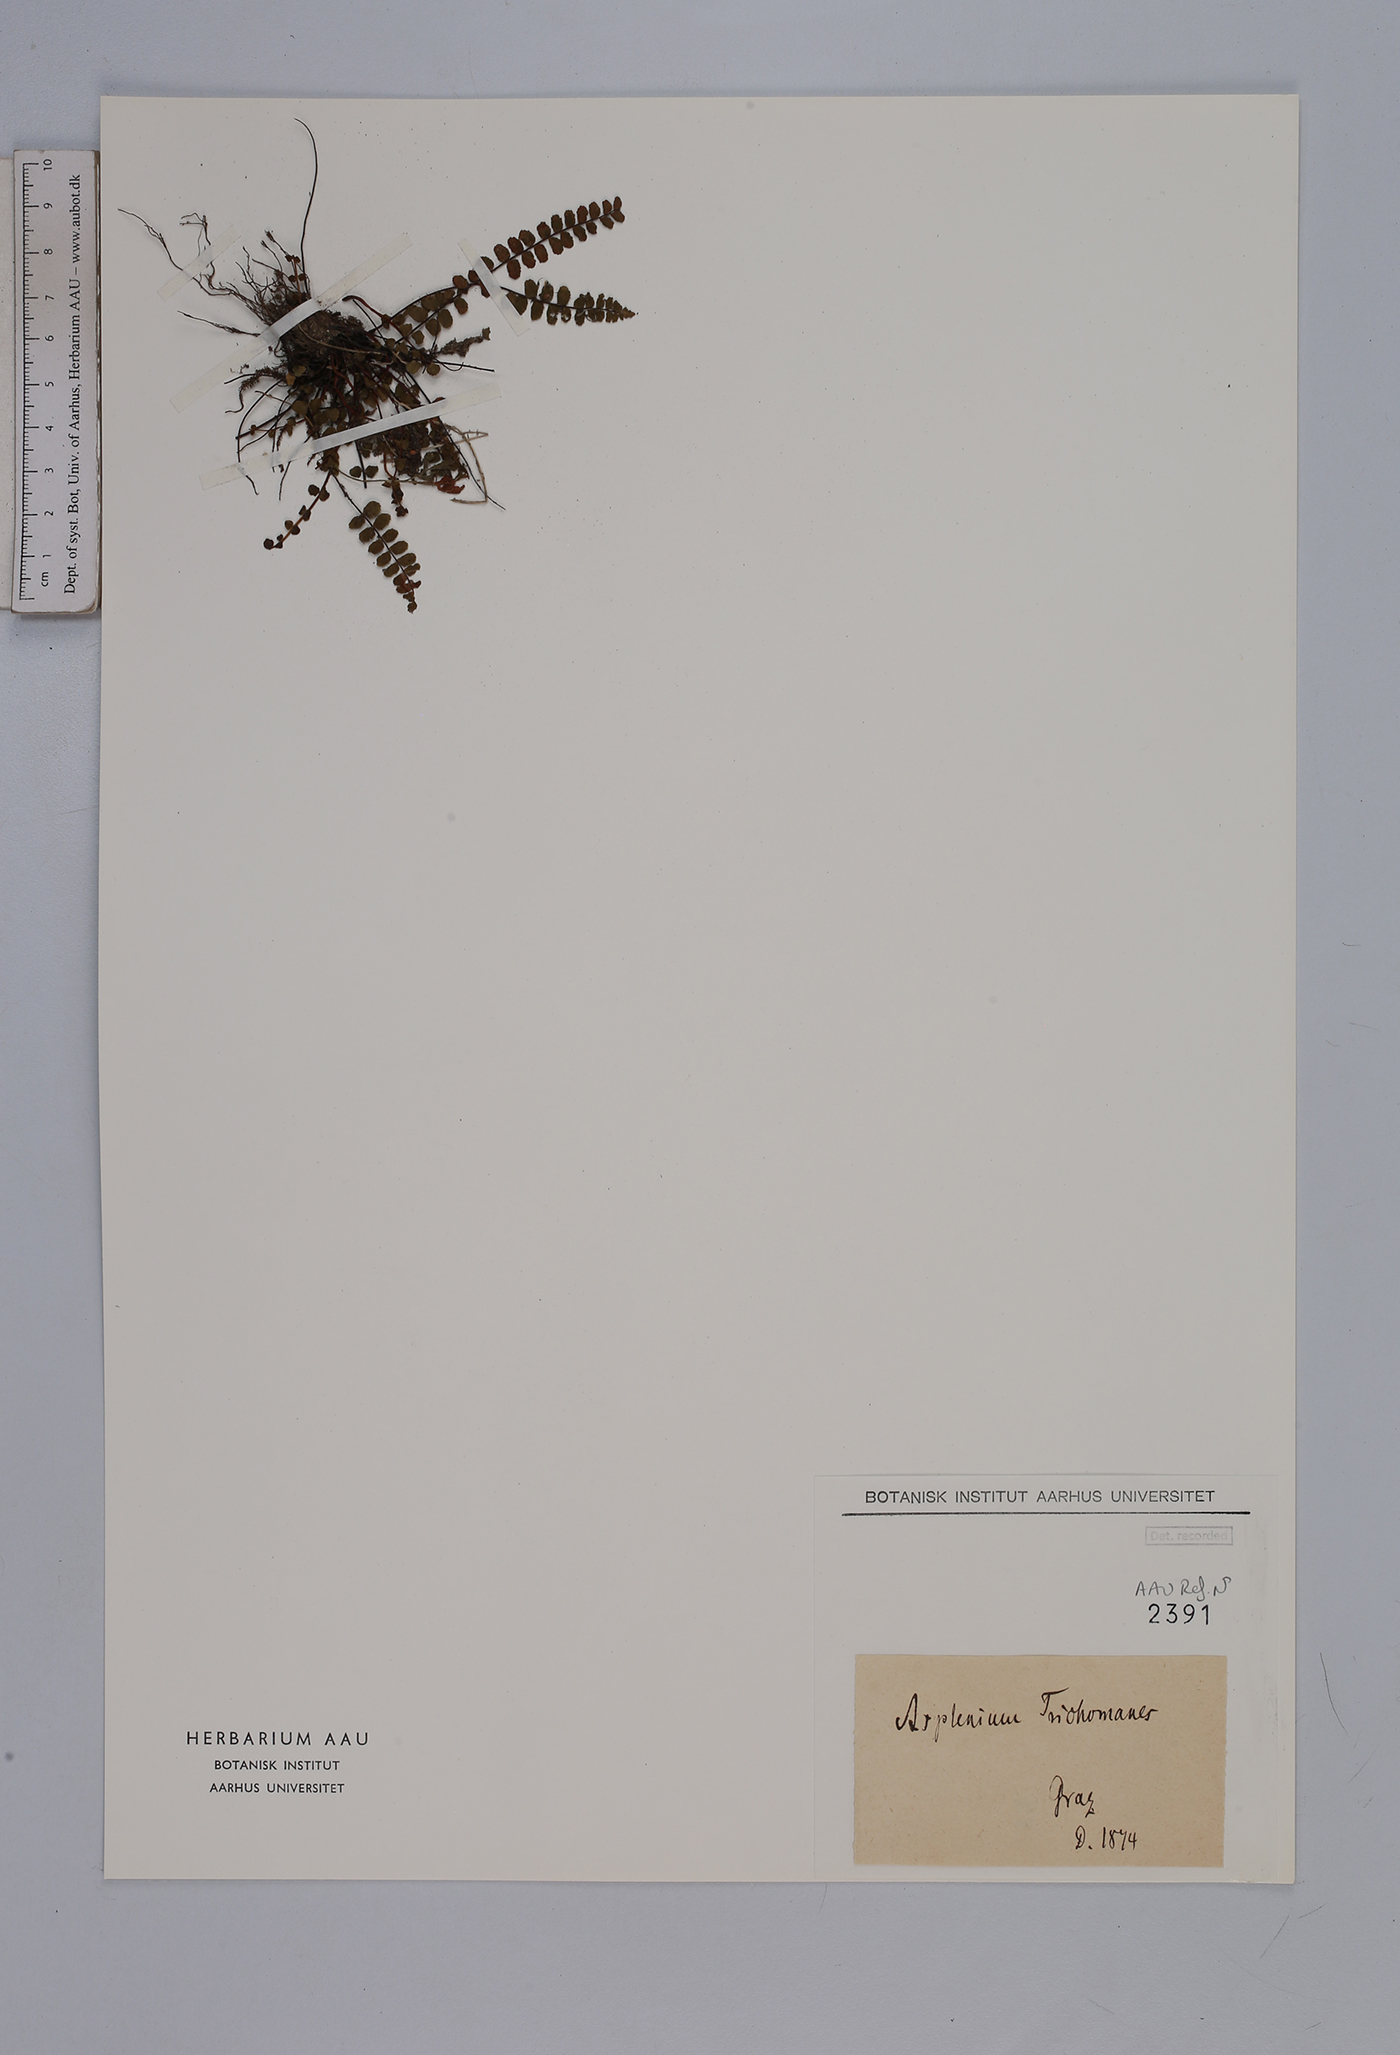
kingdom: Plantae
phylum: Tracheophyta
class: Polypodiopsida
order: Polypodiales
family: Aspleniaceae
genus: Asplenium
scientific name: Asplenium trichomanes
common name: Maidenhair spleenwort
